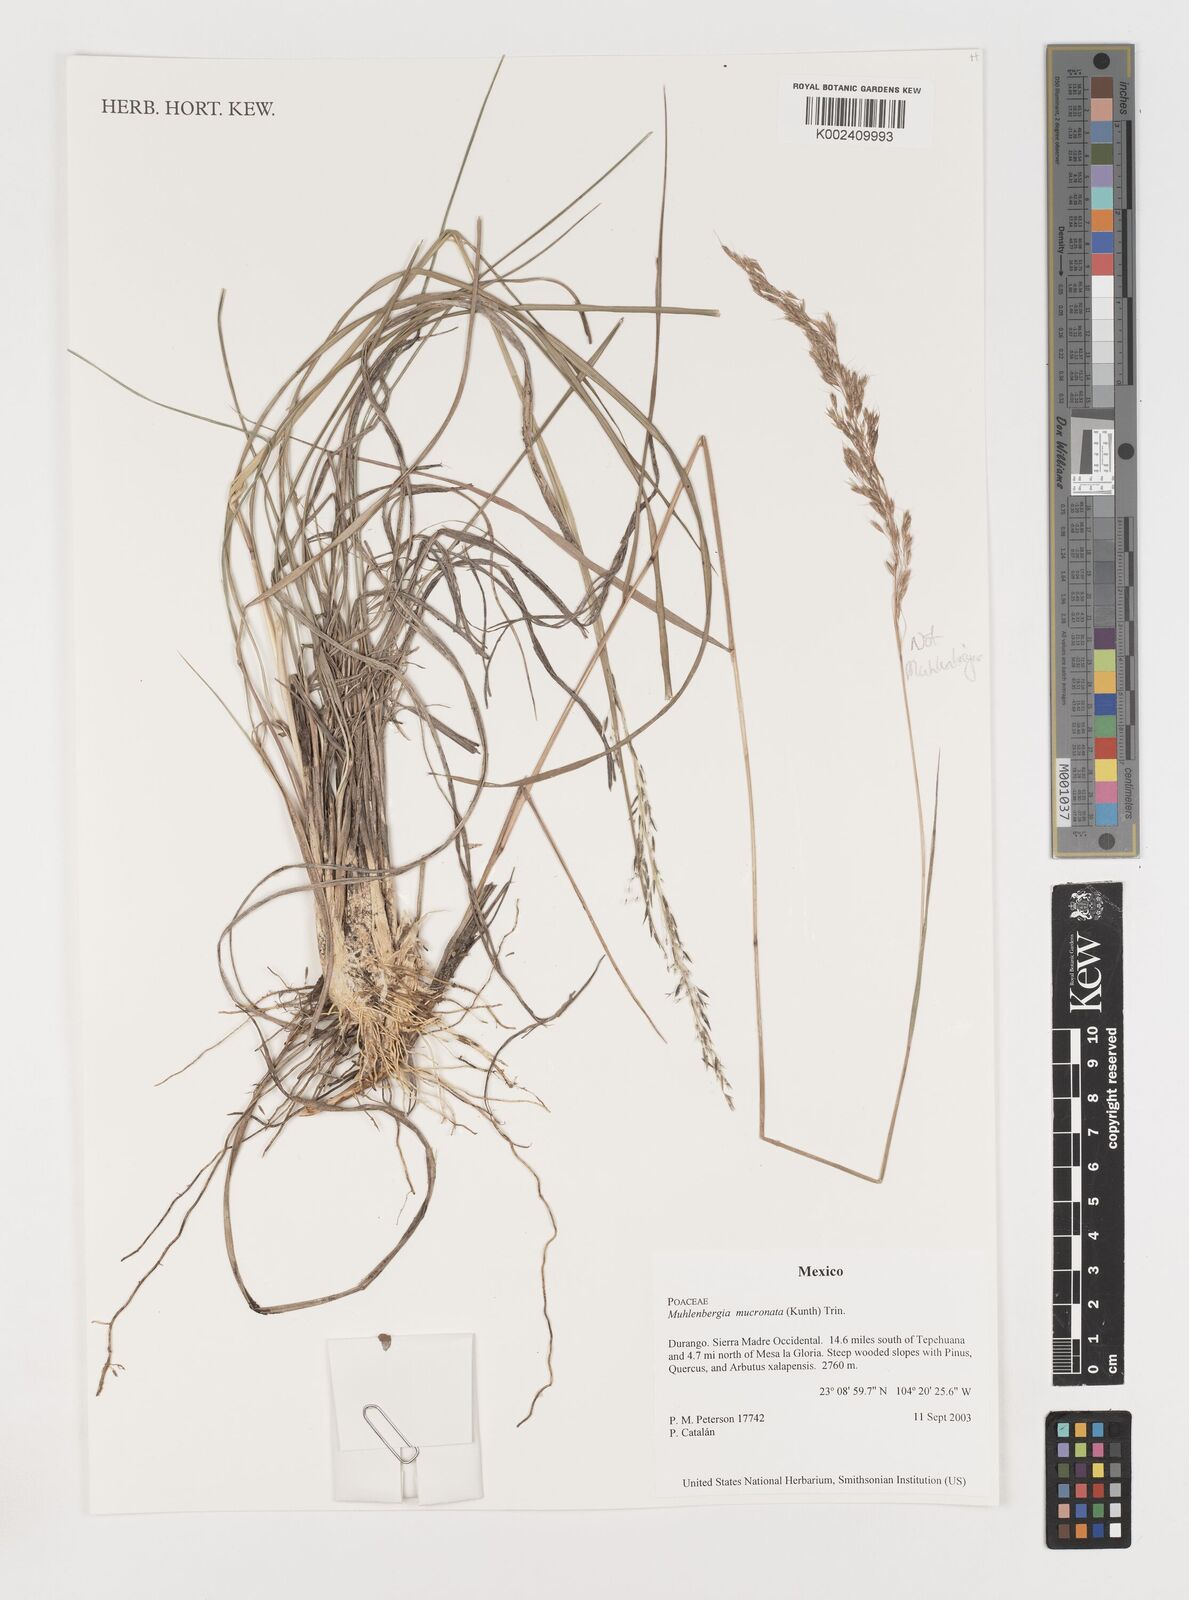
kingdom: Plantae
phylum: Tracheophyta
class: Liliopsida
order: Poales
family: Poaceae
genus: Muhlenbergia
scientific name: Muhlenbergia mucronata
